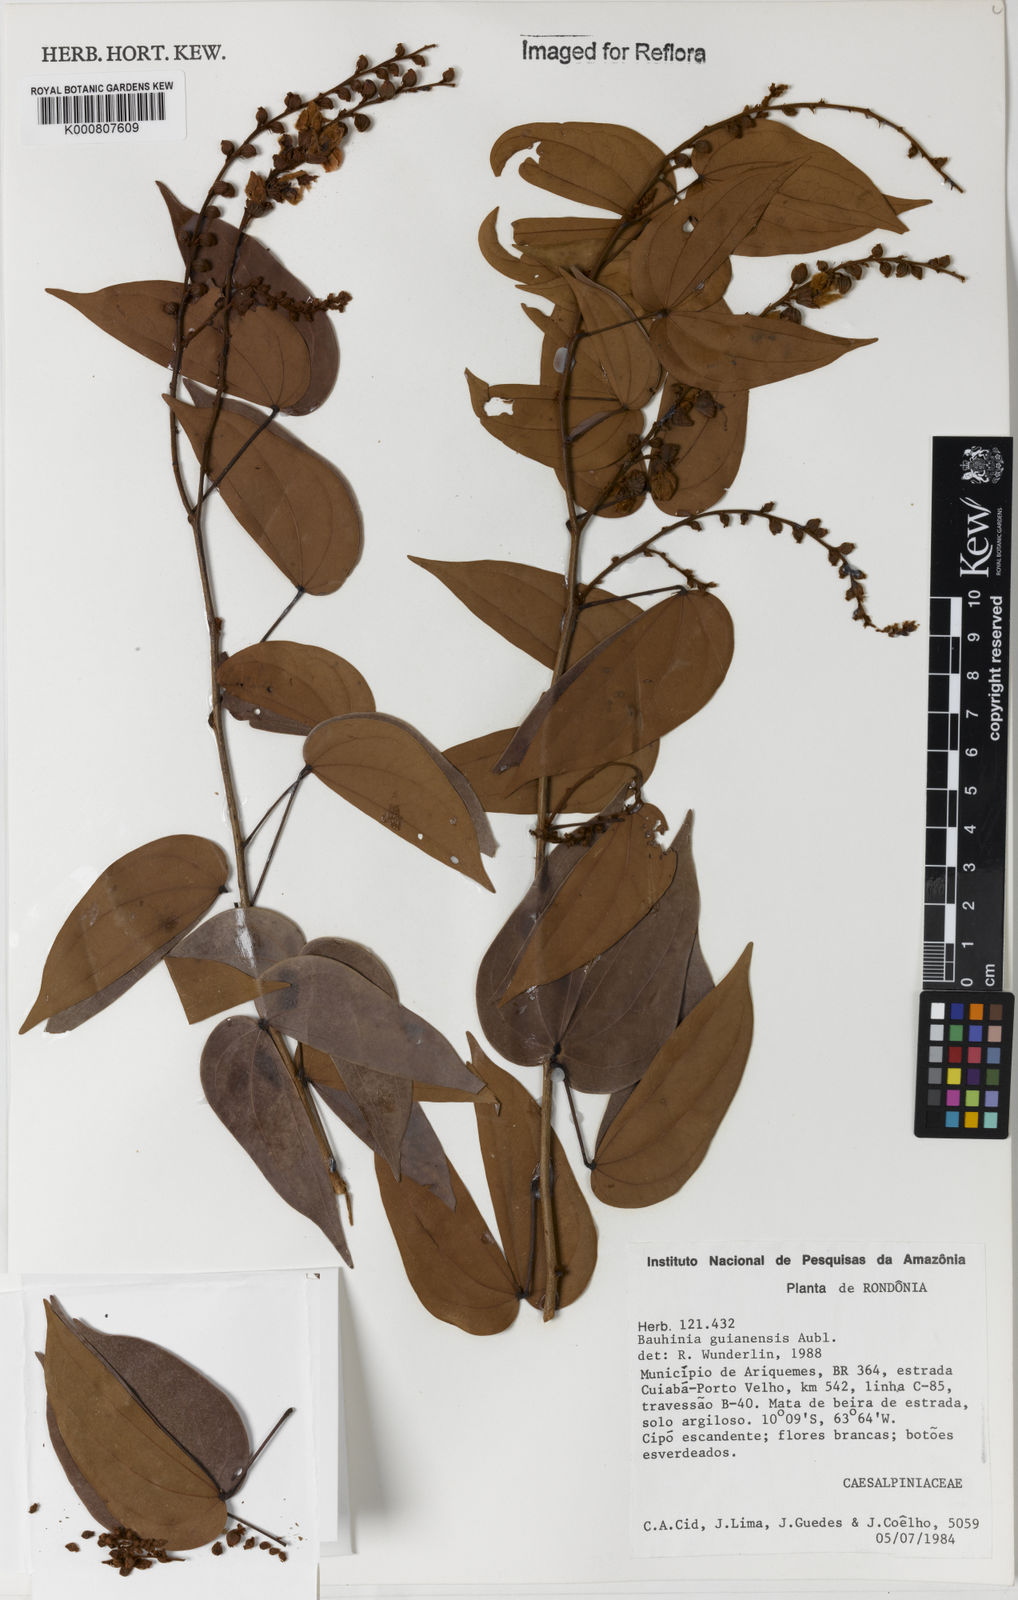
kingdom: Plantae
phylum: Tracheophyta
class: Magnoliopsida
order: Fabales
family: Fabaceae
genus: Schnella
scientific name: Schnella splendens
